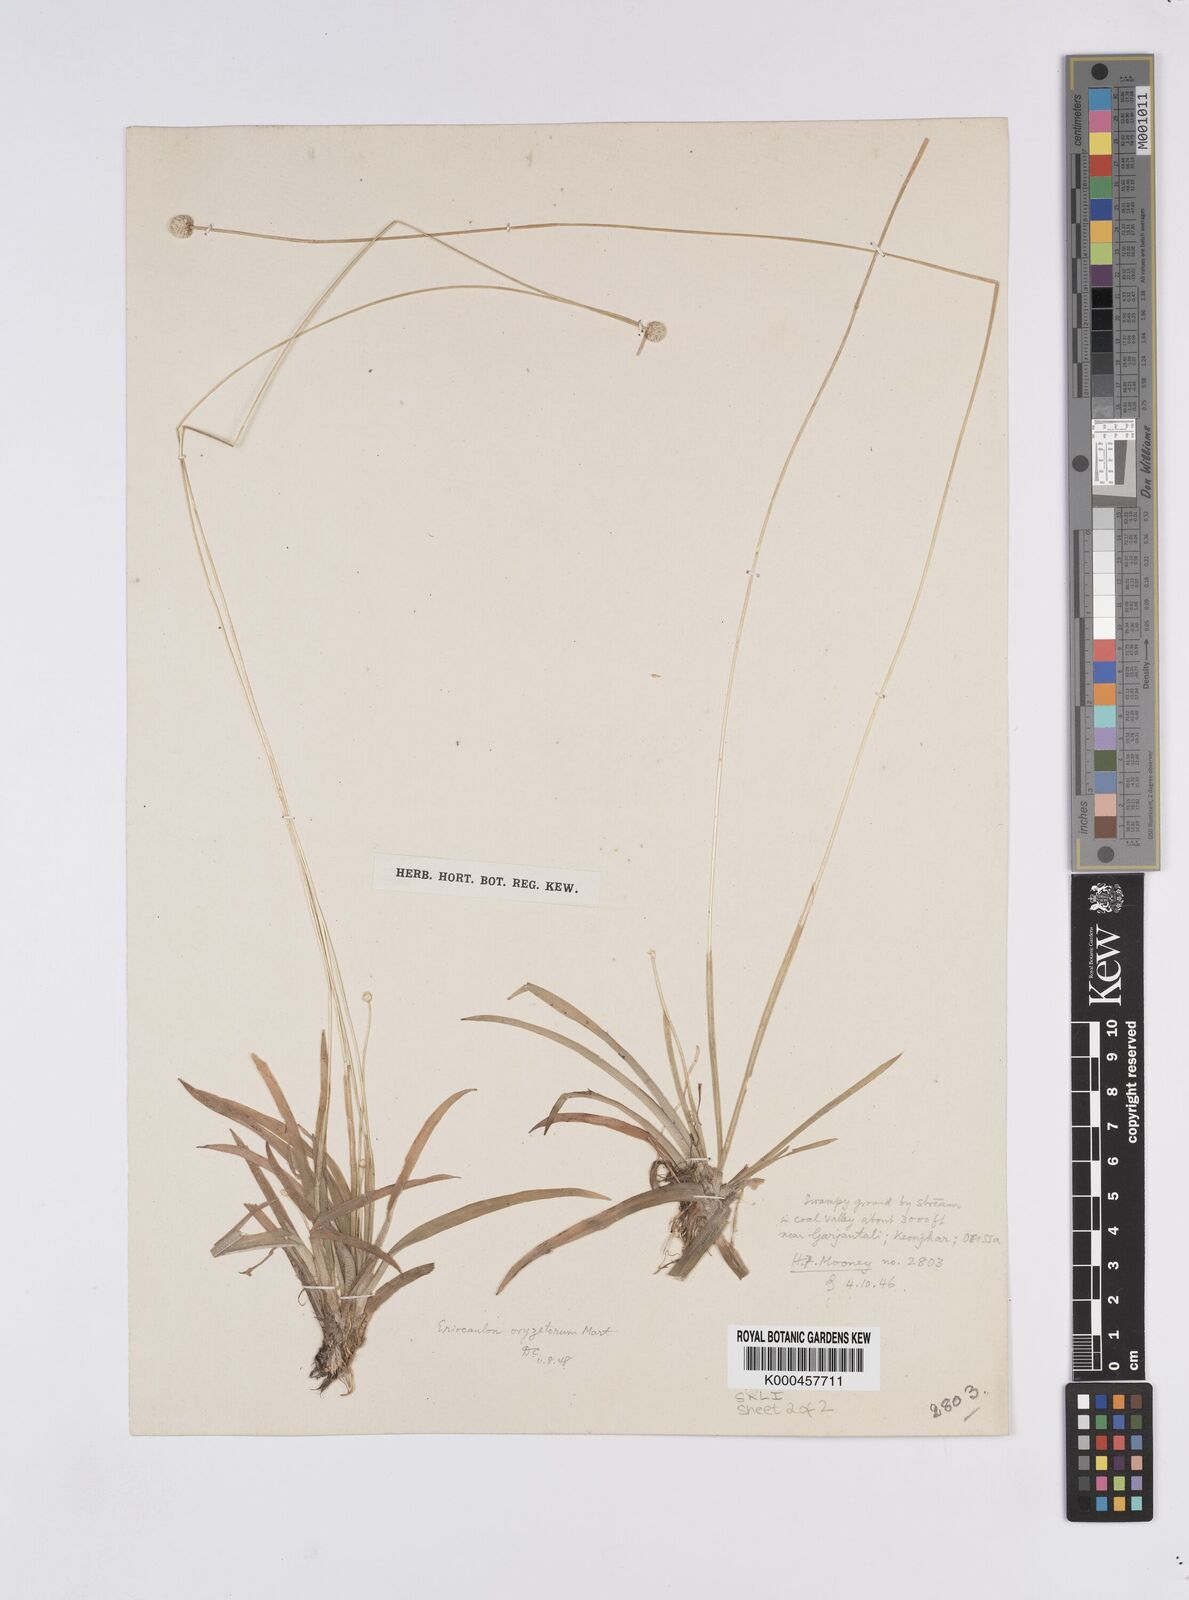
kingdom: Plantae
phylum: Tracheophyta
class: Liliopsida
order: Poales
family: Eriocaulaceae
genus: Eriocaulon
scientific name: Eriocaulon oryzetorum
